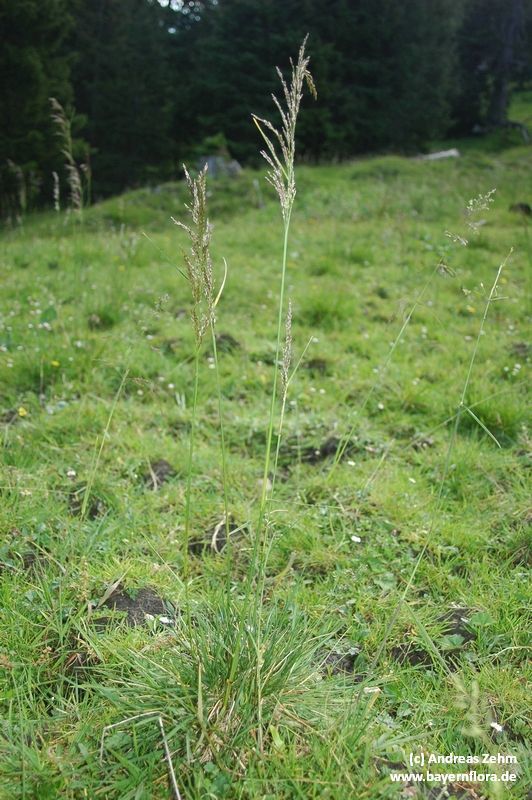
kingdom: Plantae
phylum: Tracheophyta
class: Liliopsida
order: Poales
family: Poaceae
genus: Deschampsia
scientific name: Deschampsia cespitosa
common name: Tufted hair-grass
